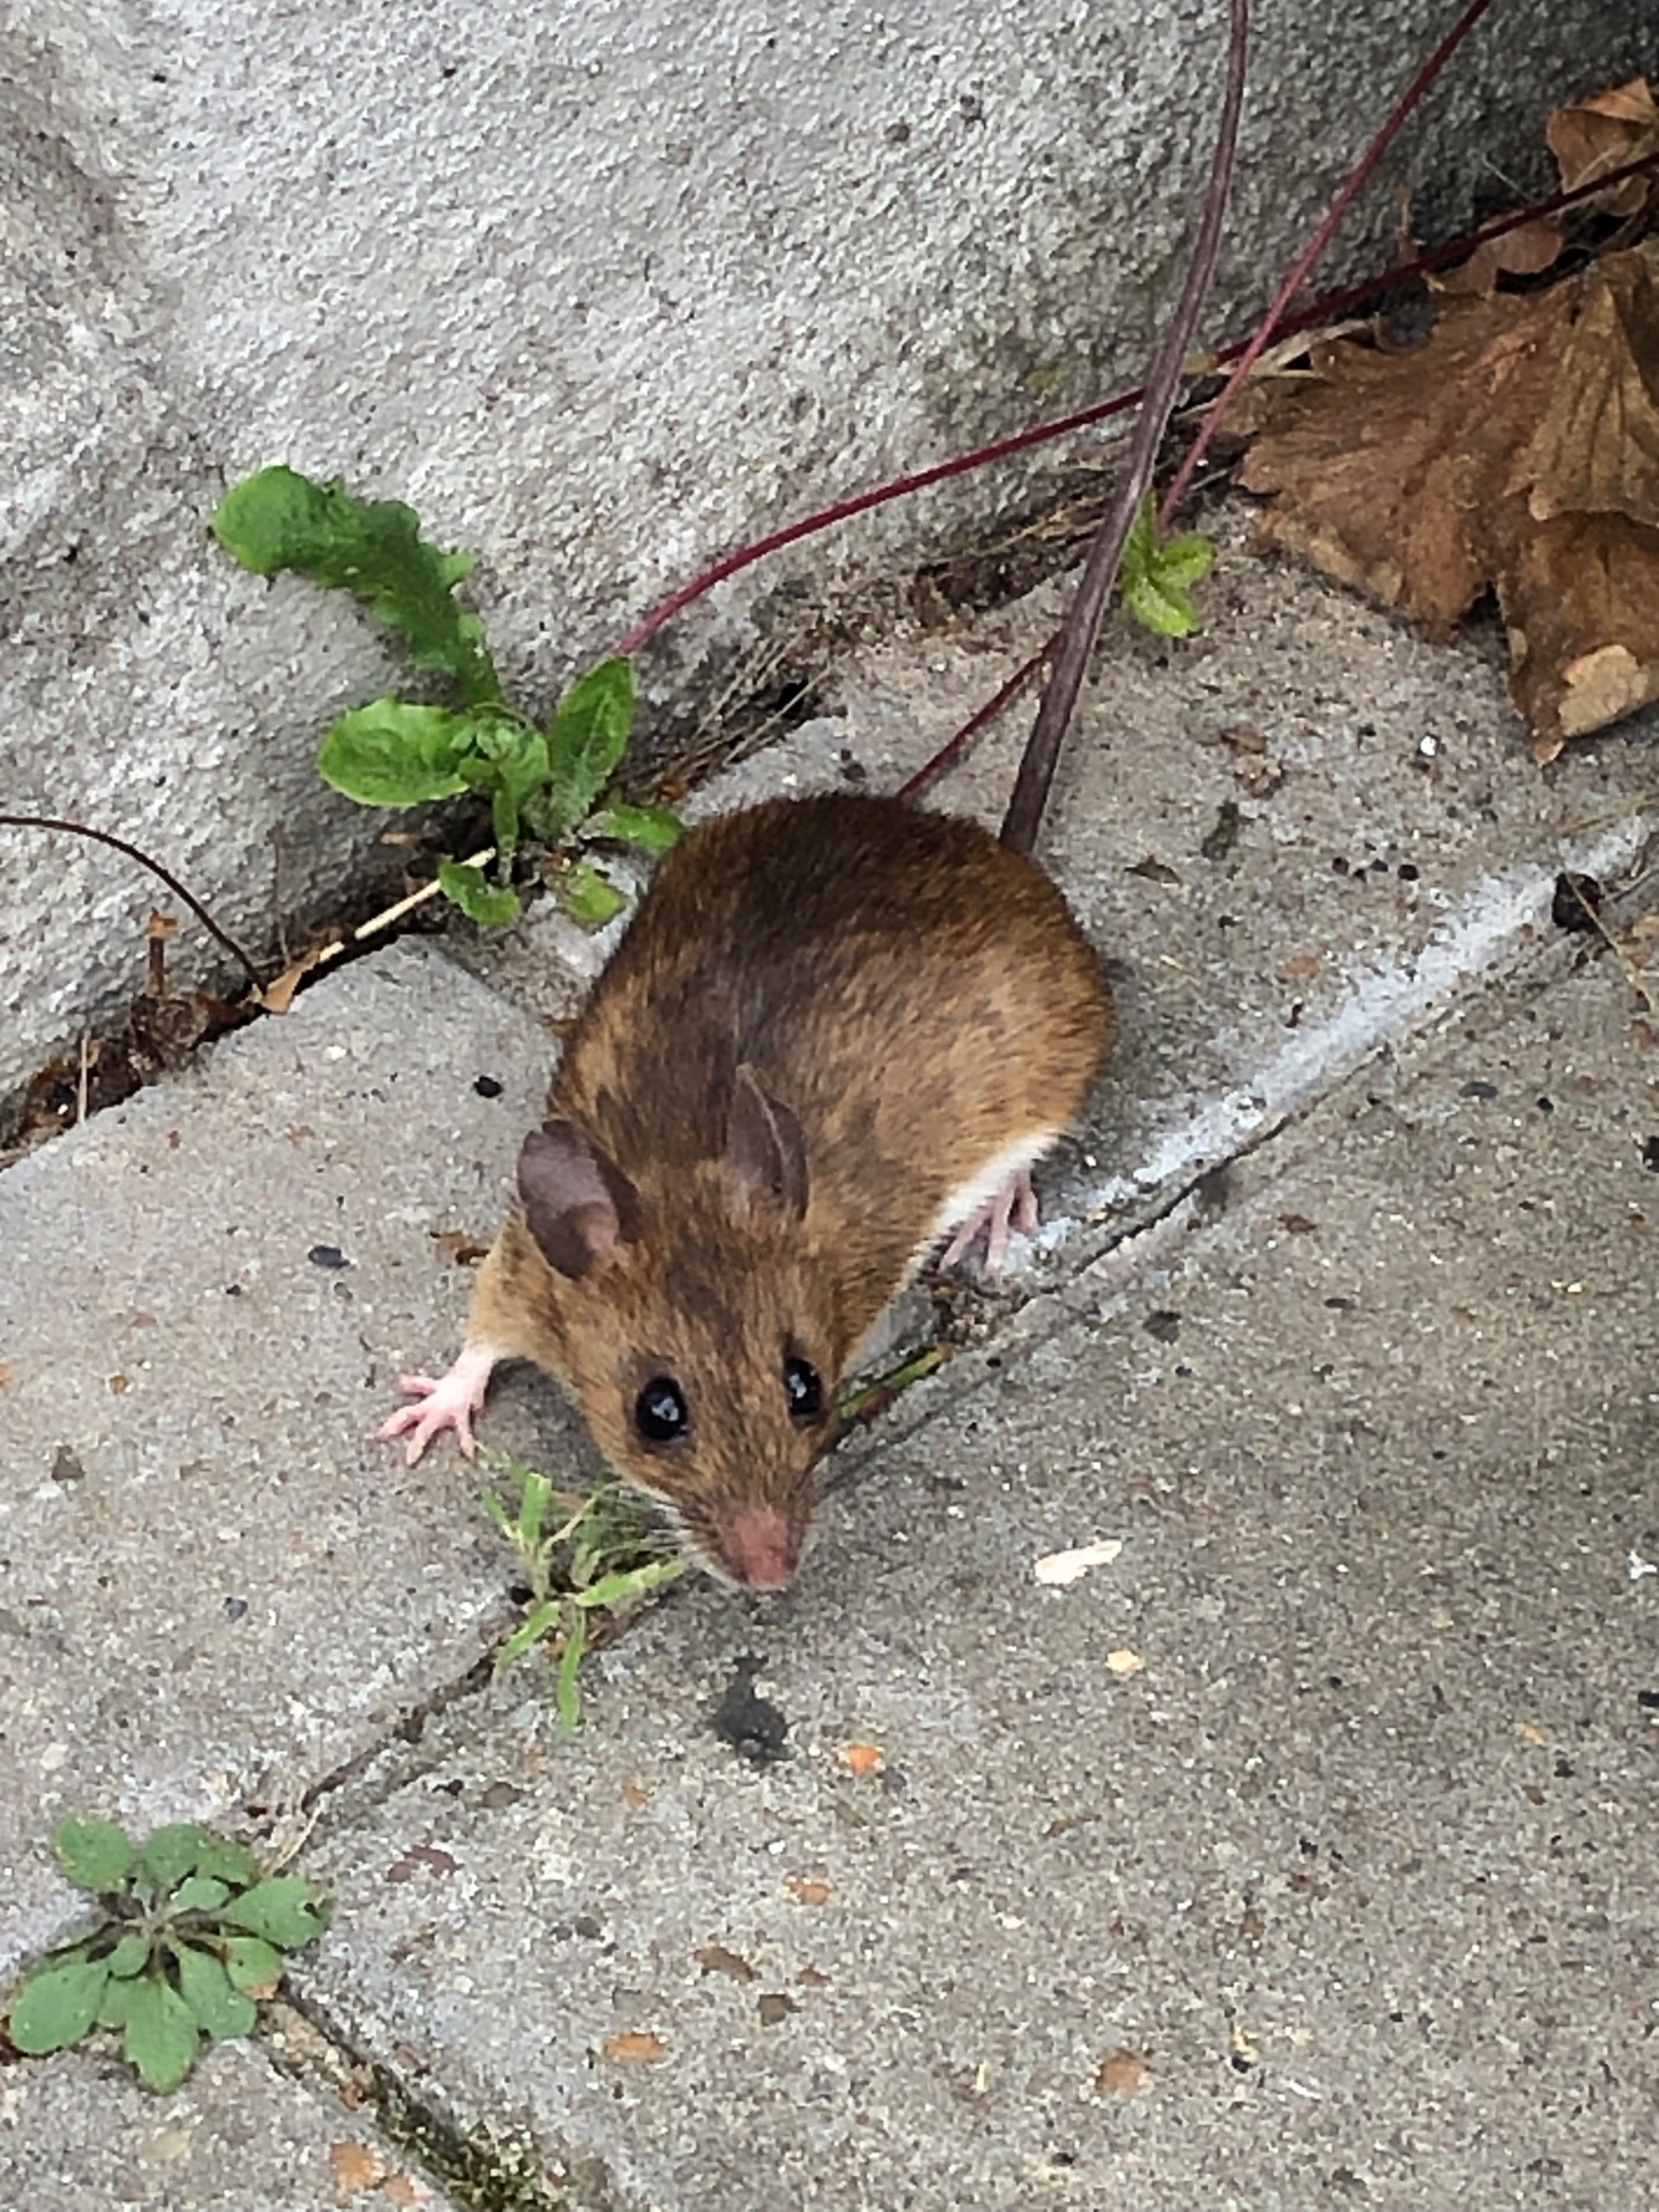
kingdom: Animalia
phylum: Chordata
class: Mammalia
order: Rodentia
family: Muridae
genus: Apodemus
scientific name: Apodemus flavicollis
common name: Halsbåndmus
